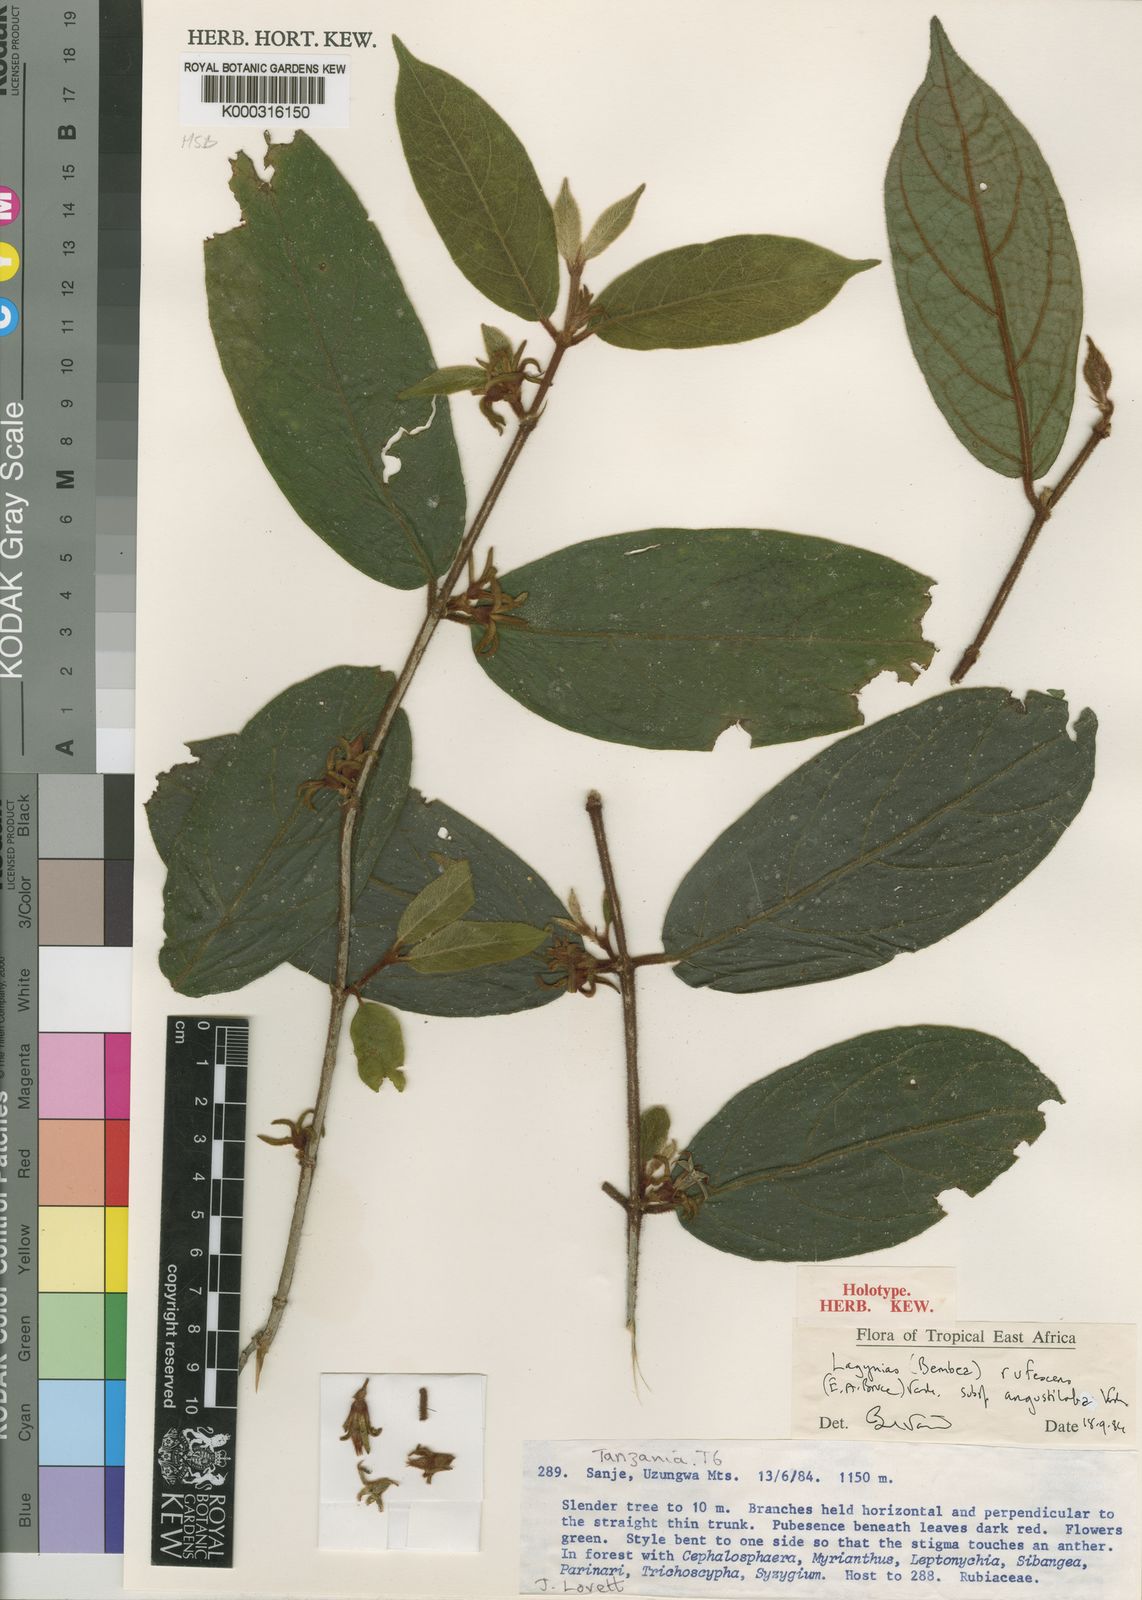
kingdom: Plantae
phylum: Tracheophyta
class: Magnoliopsida
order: Gentianales
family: Rubiaceae
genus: Vangueria
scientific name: Vangueria rufescens
